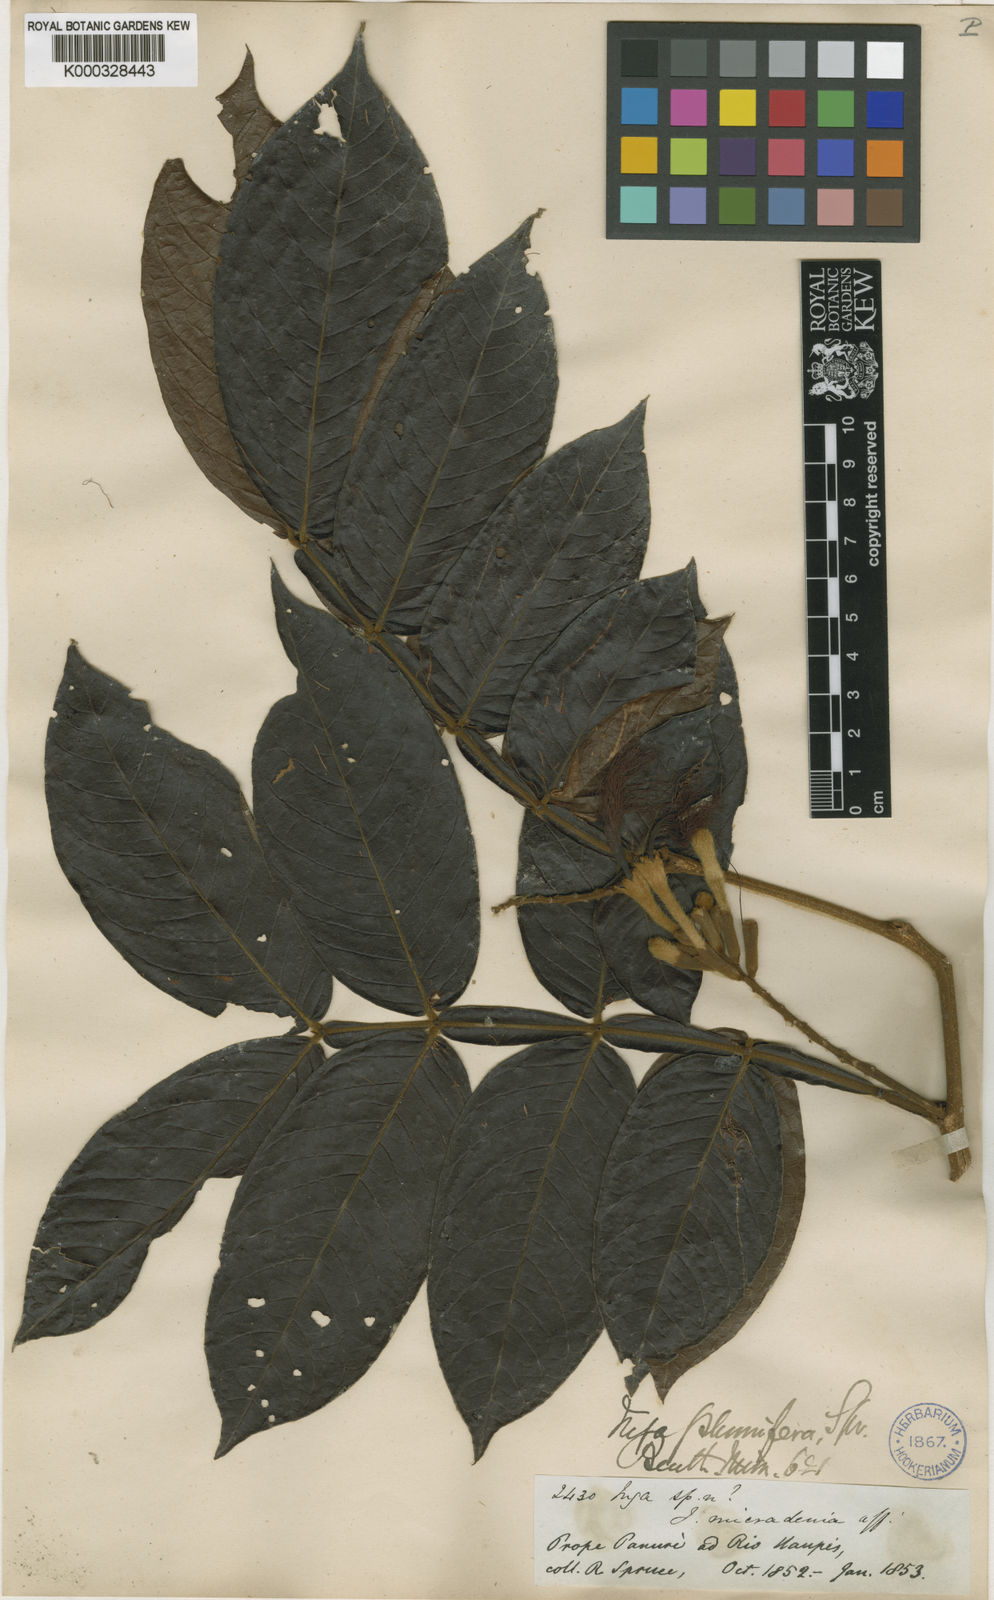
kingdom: Plantae
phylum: Tracheophyta
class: Magnoliopsida
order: Fabales
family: Fabaceae
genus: Inga
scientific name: Inga plumifera
